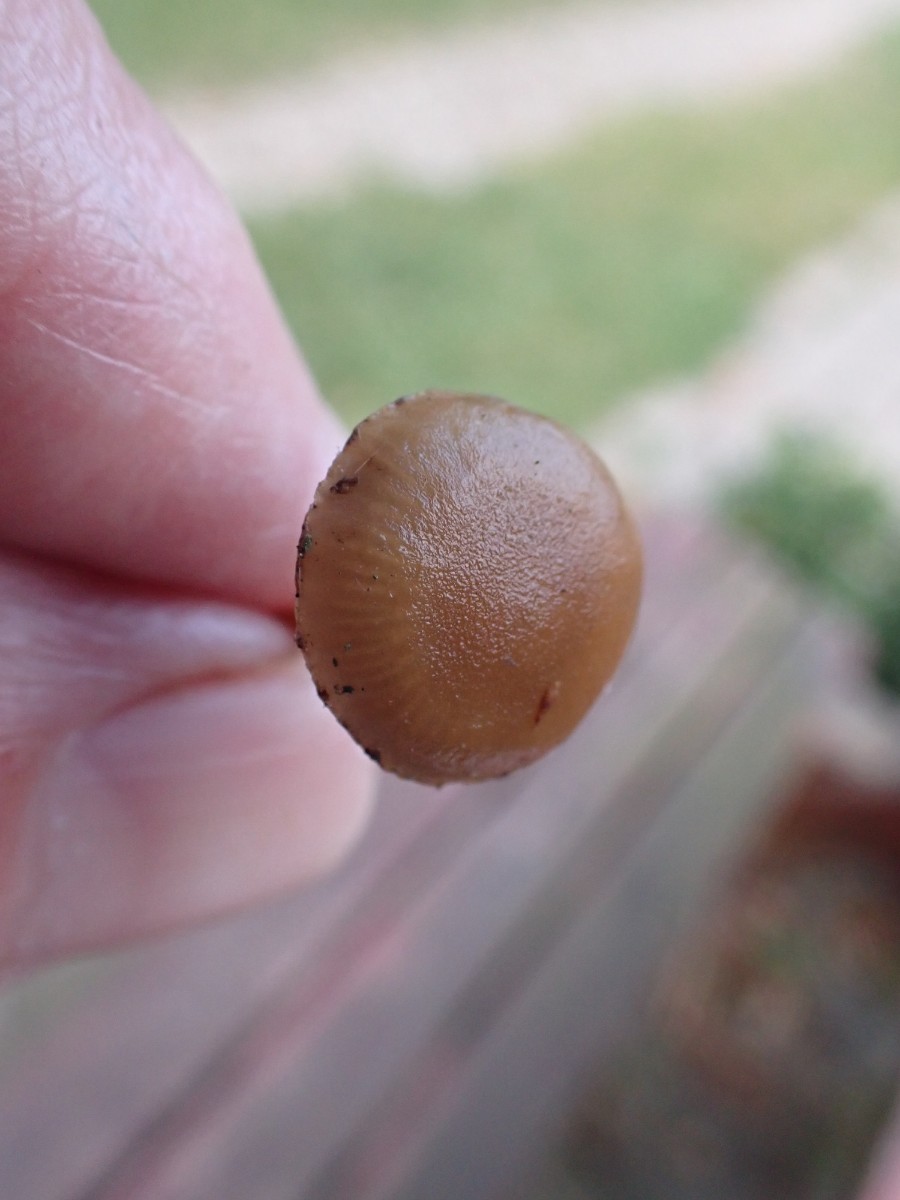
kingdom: Fungi
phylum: Basidiomycota
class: Agaricomycetes
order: Agaricales
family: Strophariaceae
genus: Hypholoma
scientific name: Hypholoma
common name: svovlhat
